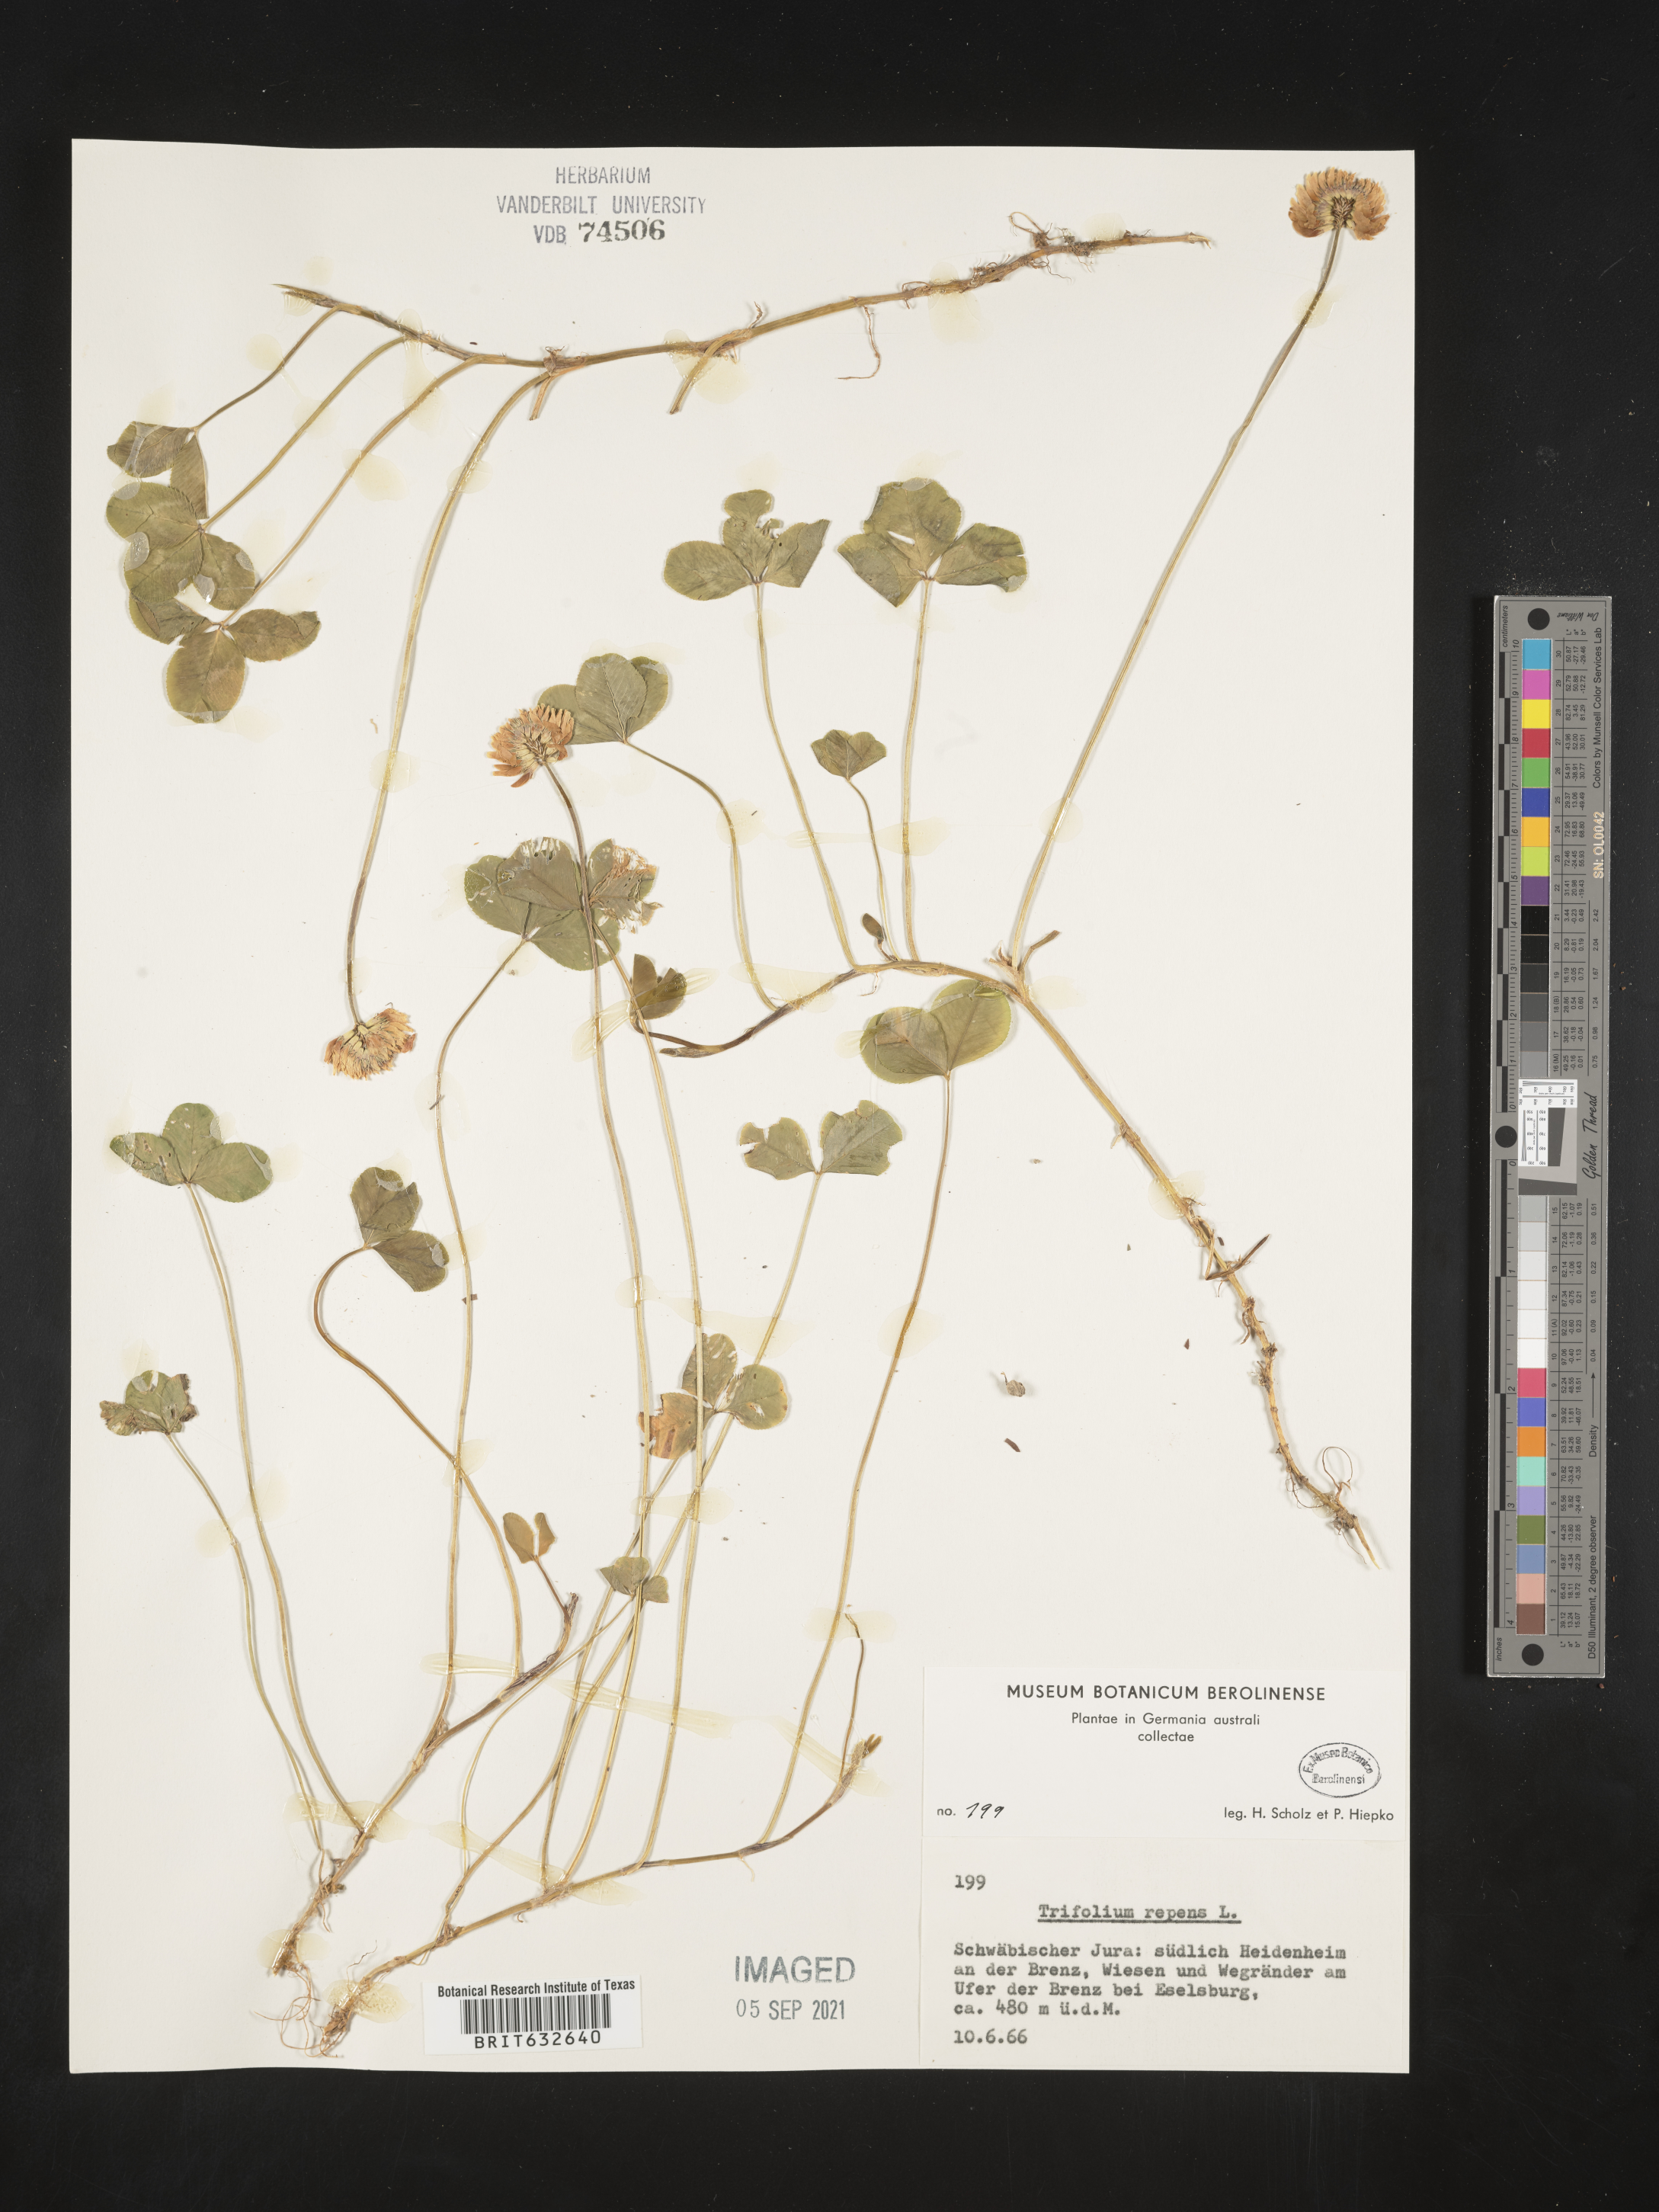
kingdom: Plantae
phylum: Tracheophyta
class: Magnoliopsida
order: Fabales
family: Fabaceae
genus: Trifolium
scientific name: Trifolium
